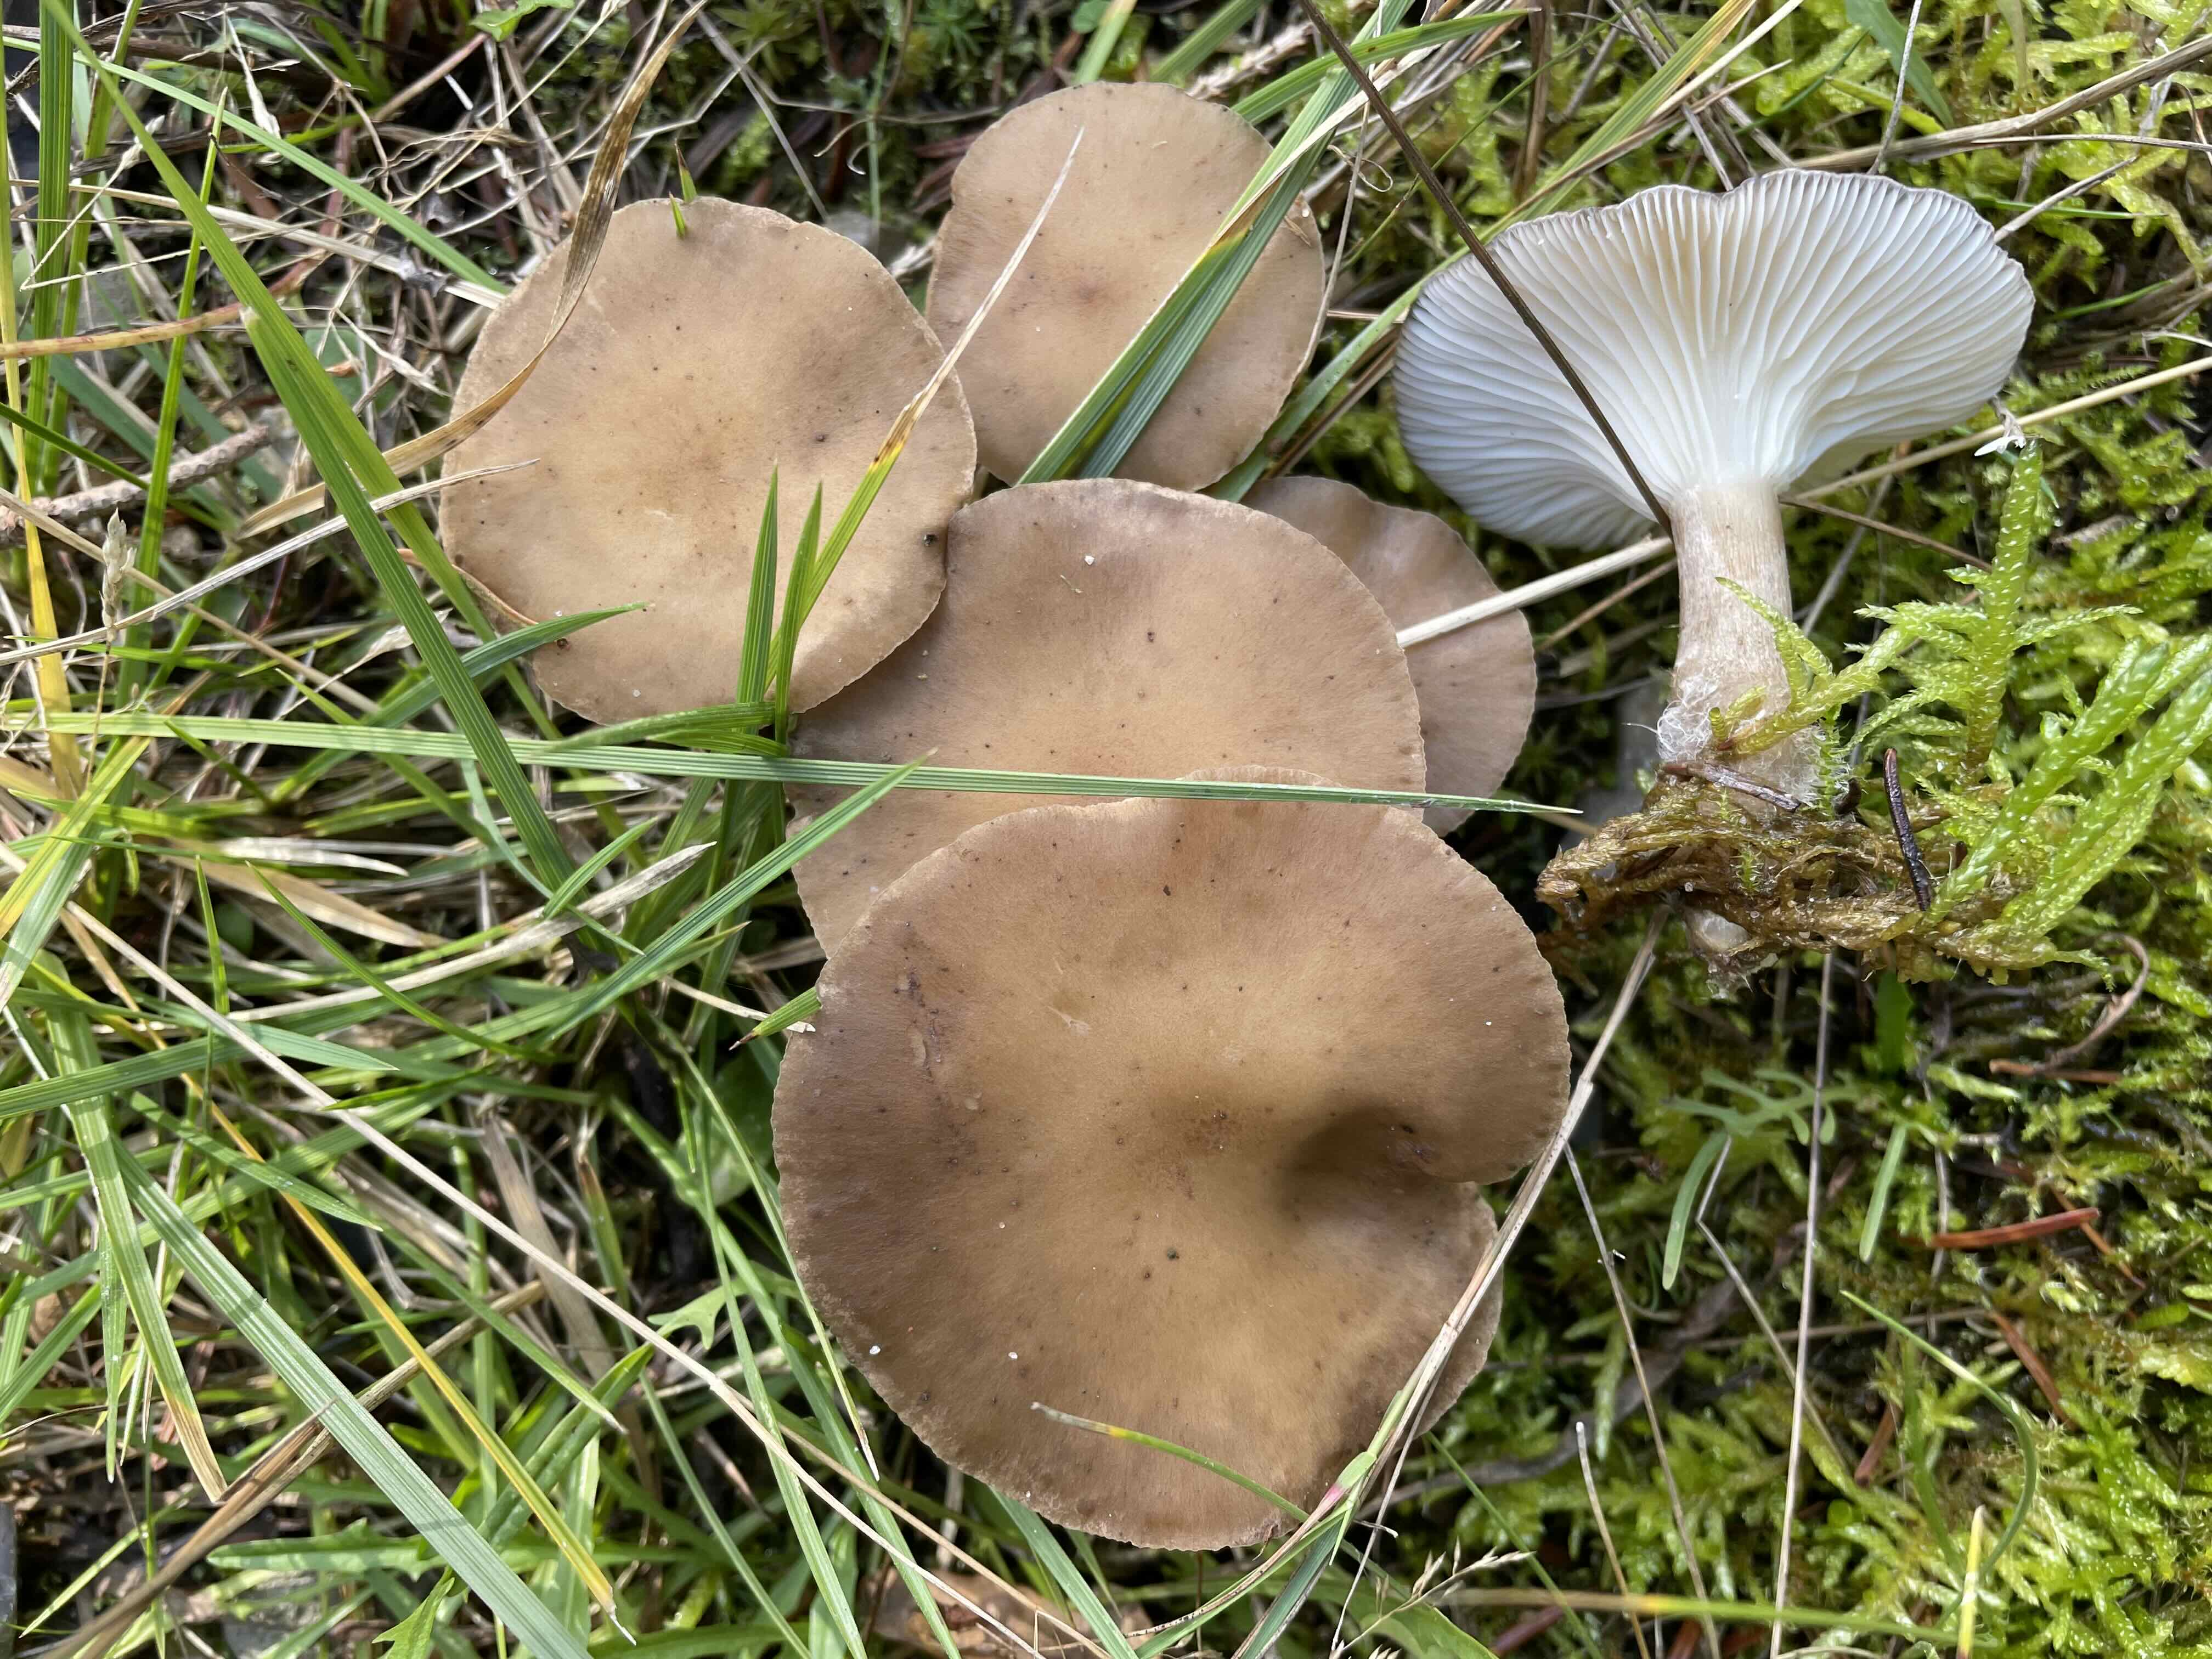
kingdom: Fungi
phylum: Basidiomycota
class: Agaricomycetes
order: Agaricales
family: Hygrophoraceae
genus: Ampulloclitocybe
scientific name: Ampulloclitocybe clavipes
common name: køllefod
